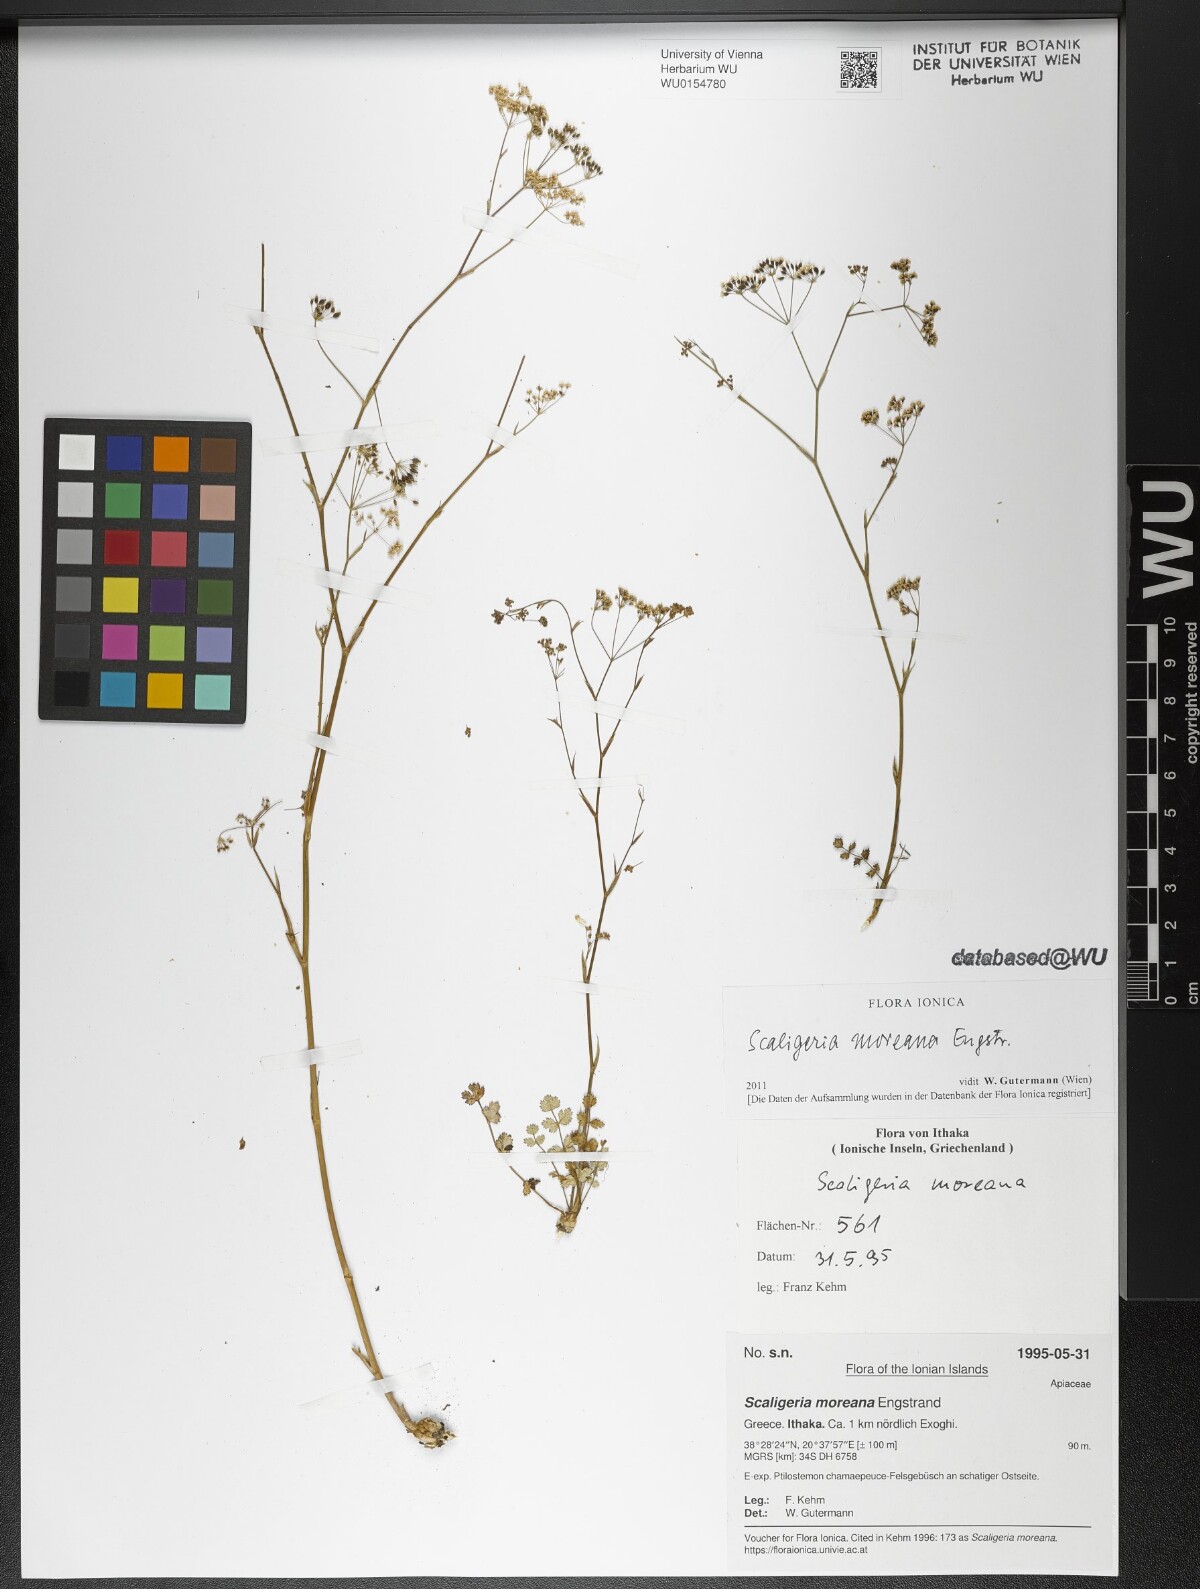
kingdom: Plantae
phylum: Tracheophyta
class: Magnoliopsida
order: Apiales
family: Apiaceae
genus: Scaligeria
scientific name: Scaligeria moreana
